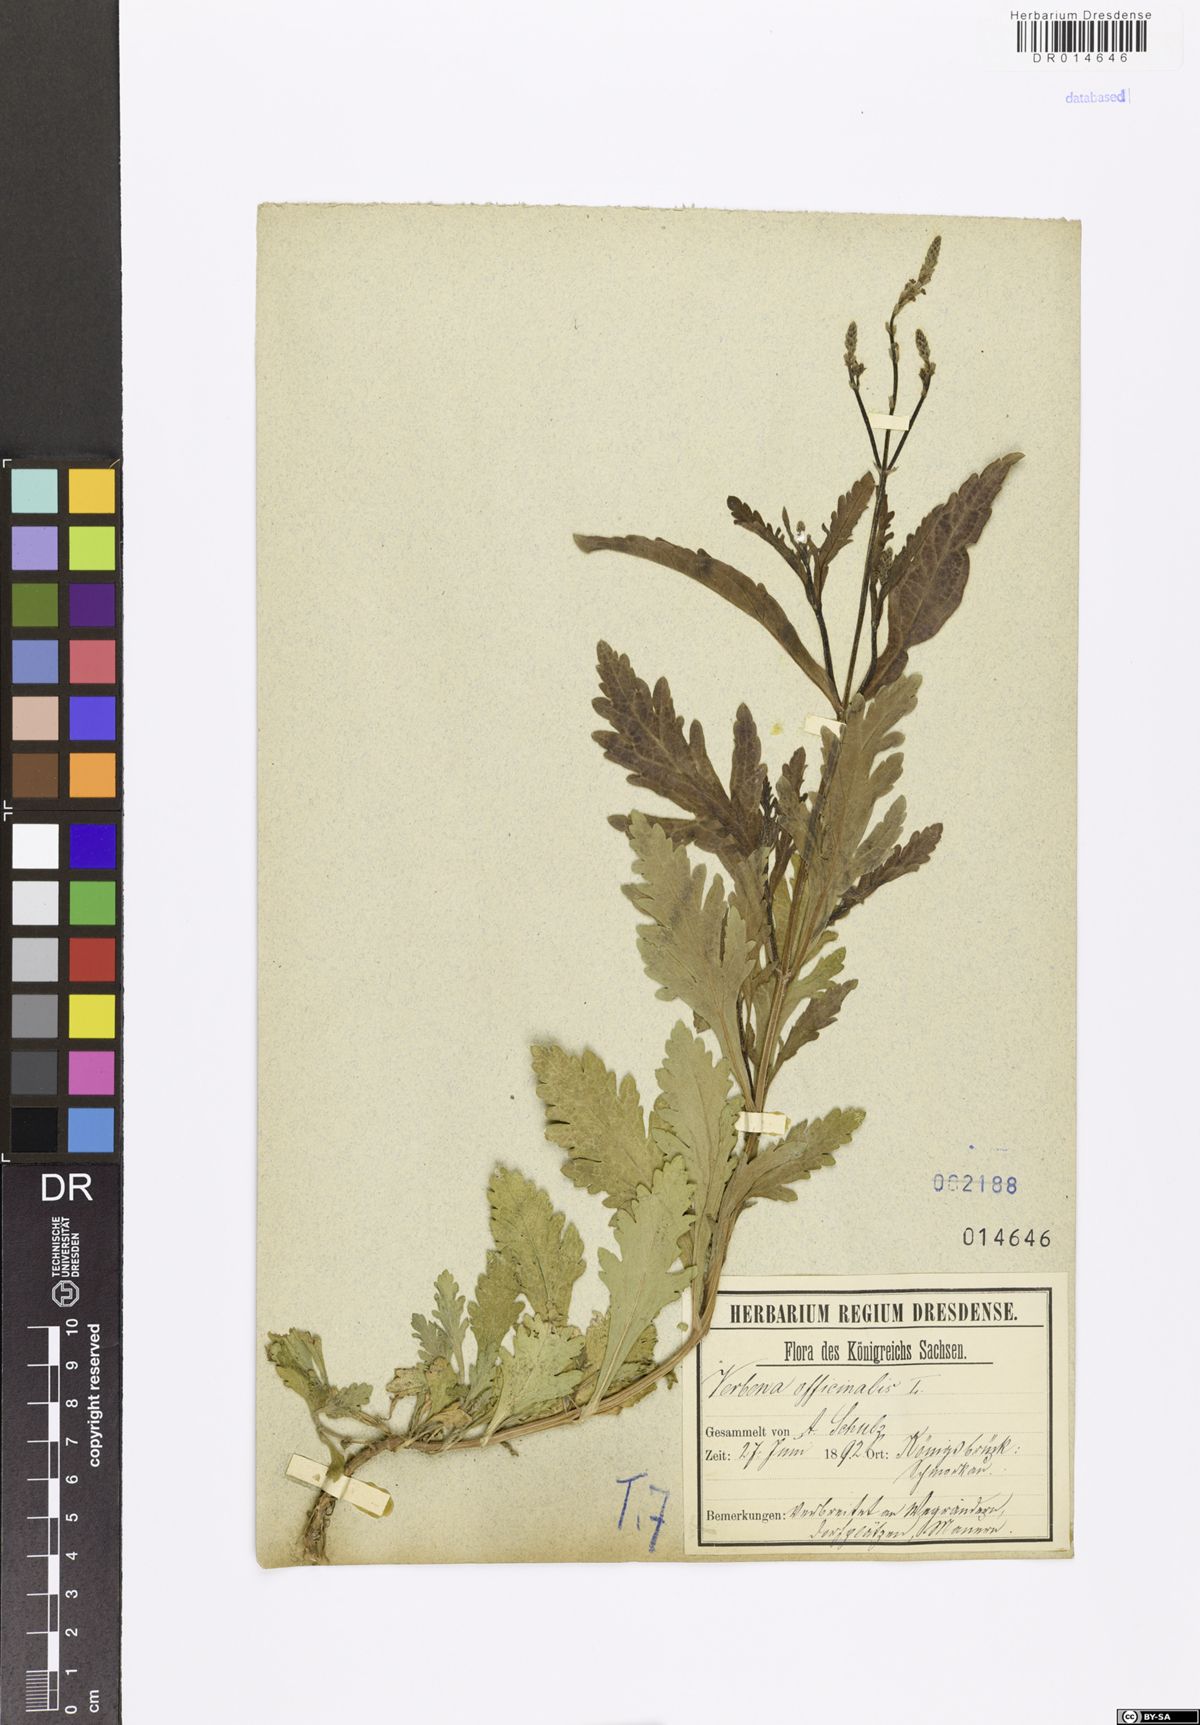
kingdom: Plantae
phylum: Tracheophyta
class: Magnoliopsida
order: Lamiales
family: Verbenaceae
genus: Verbena
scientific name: Verbena officinalis
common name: Vervain
